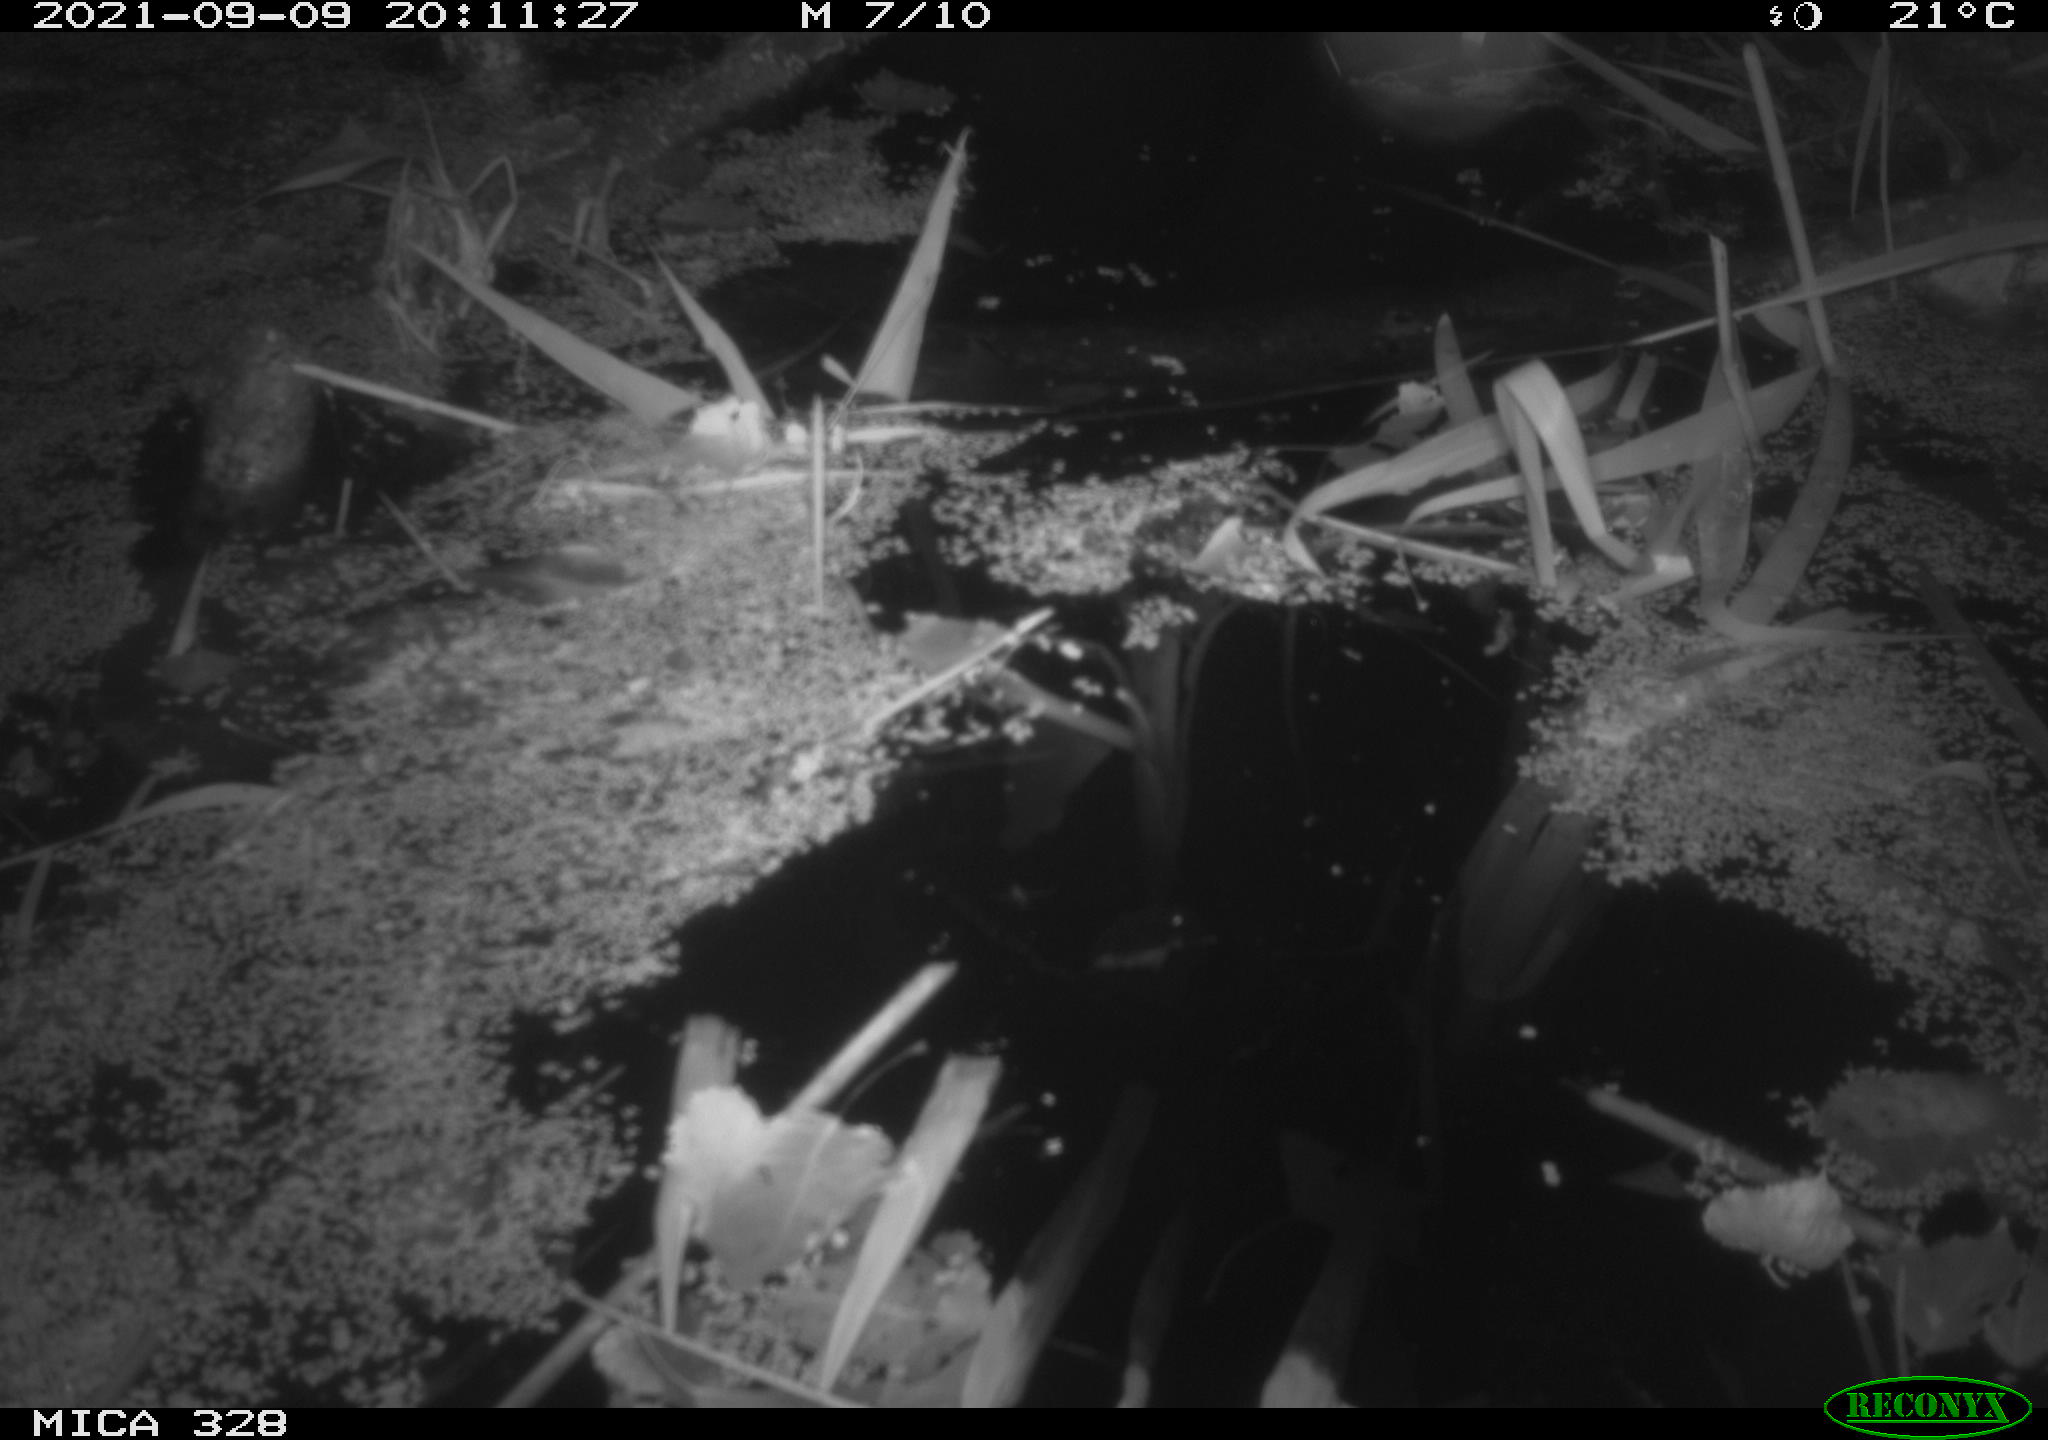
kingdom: Animalia
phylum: Chordata
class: Mammalia
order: Rodentia
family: Cricetidae
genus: Ondatra
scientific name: Ondatra zibethicus
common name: Muskrat
